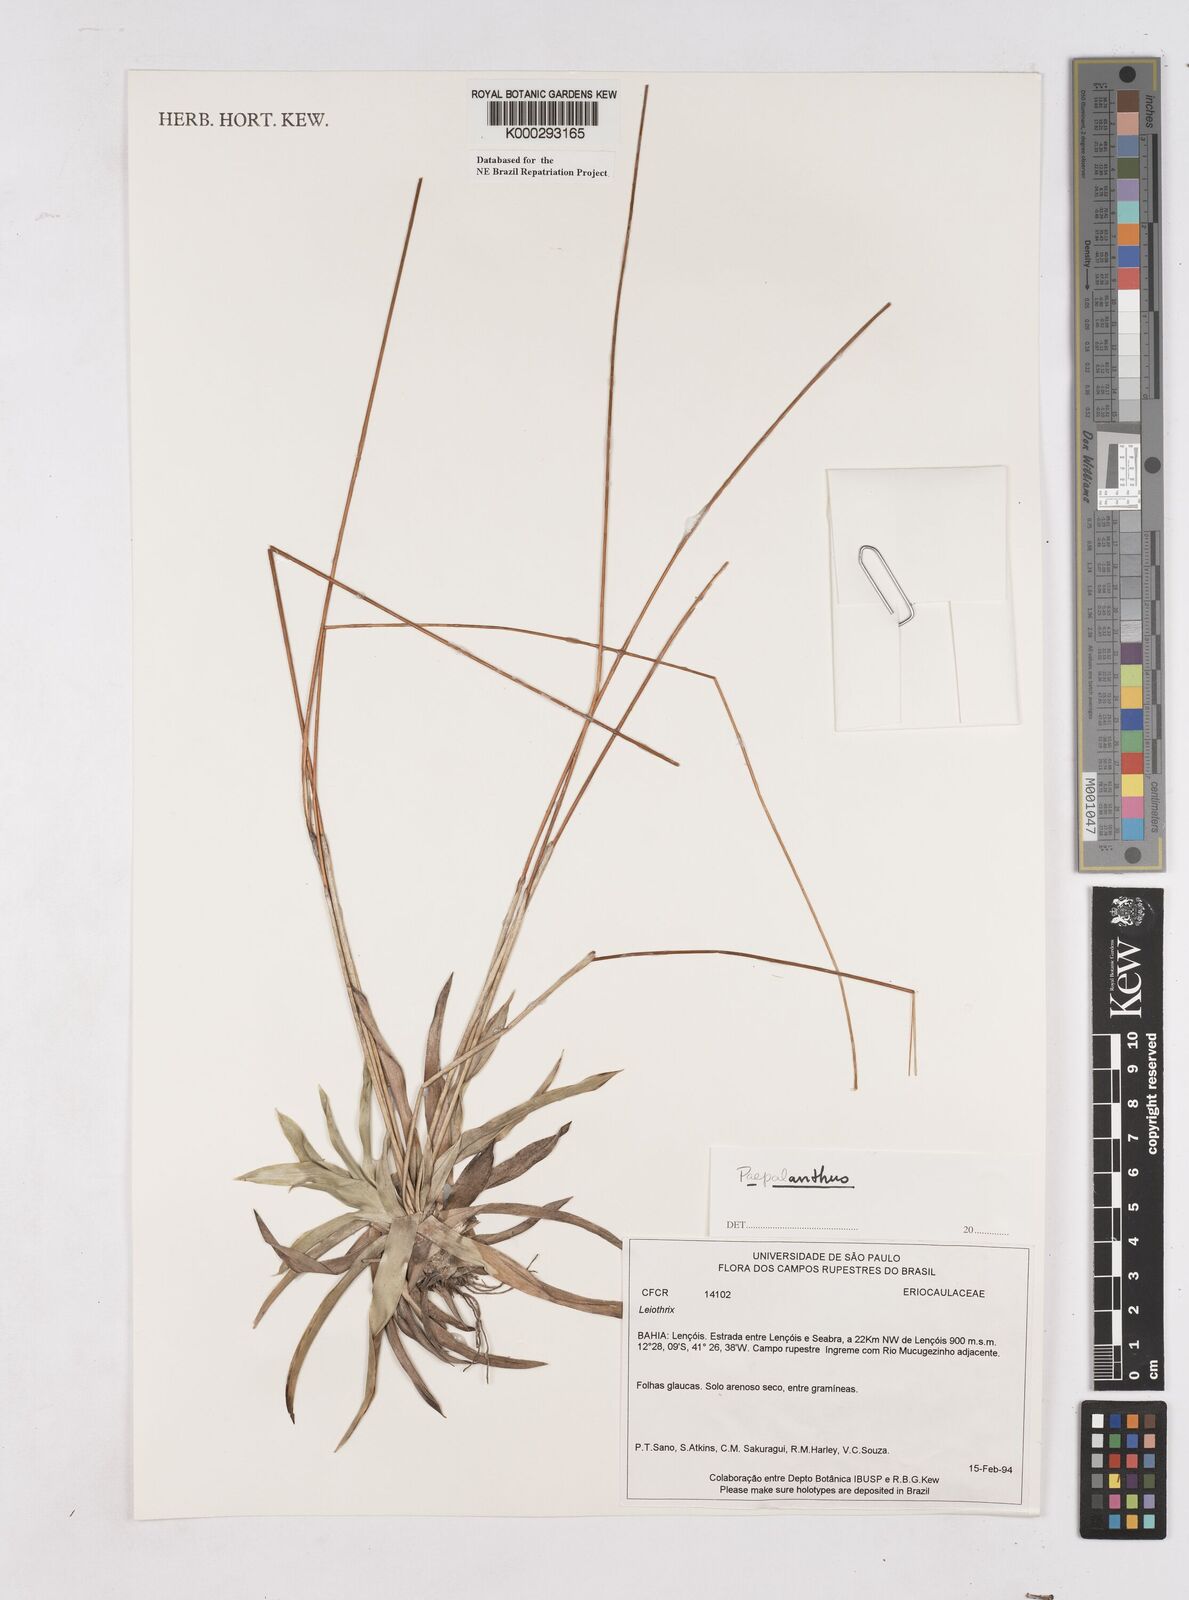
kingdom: Plantae
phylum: Tracheophyta
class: Liliopsida
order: Poales
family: Eriocaulaceae
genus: Paepalanthus
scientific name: Paepalanthus
